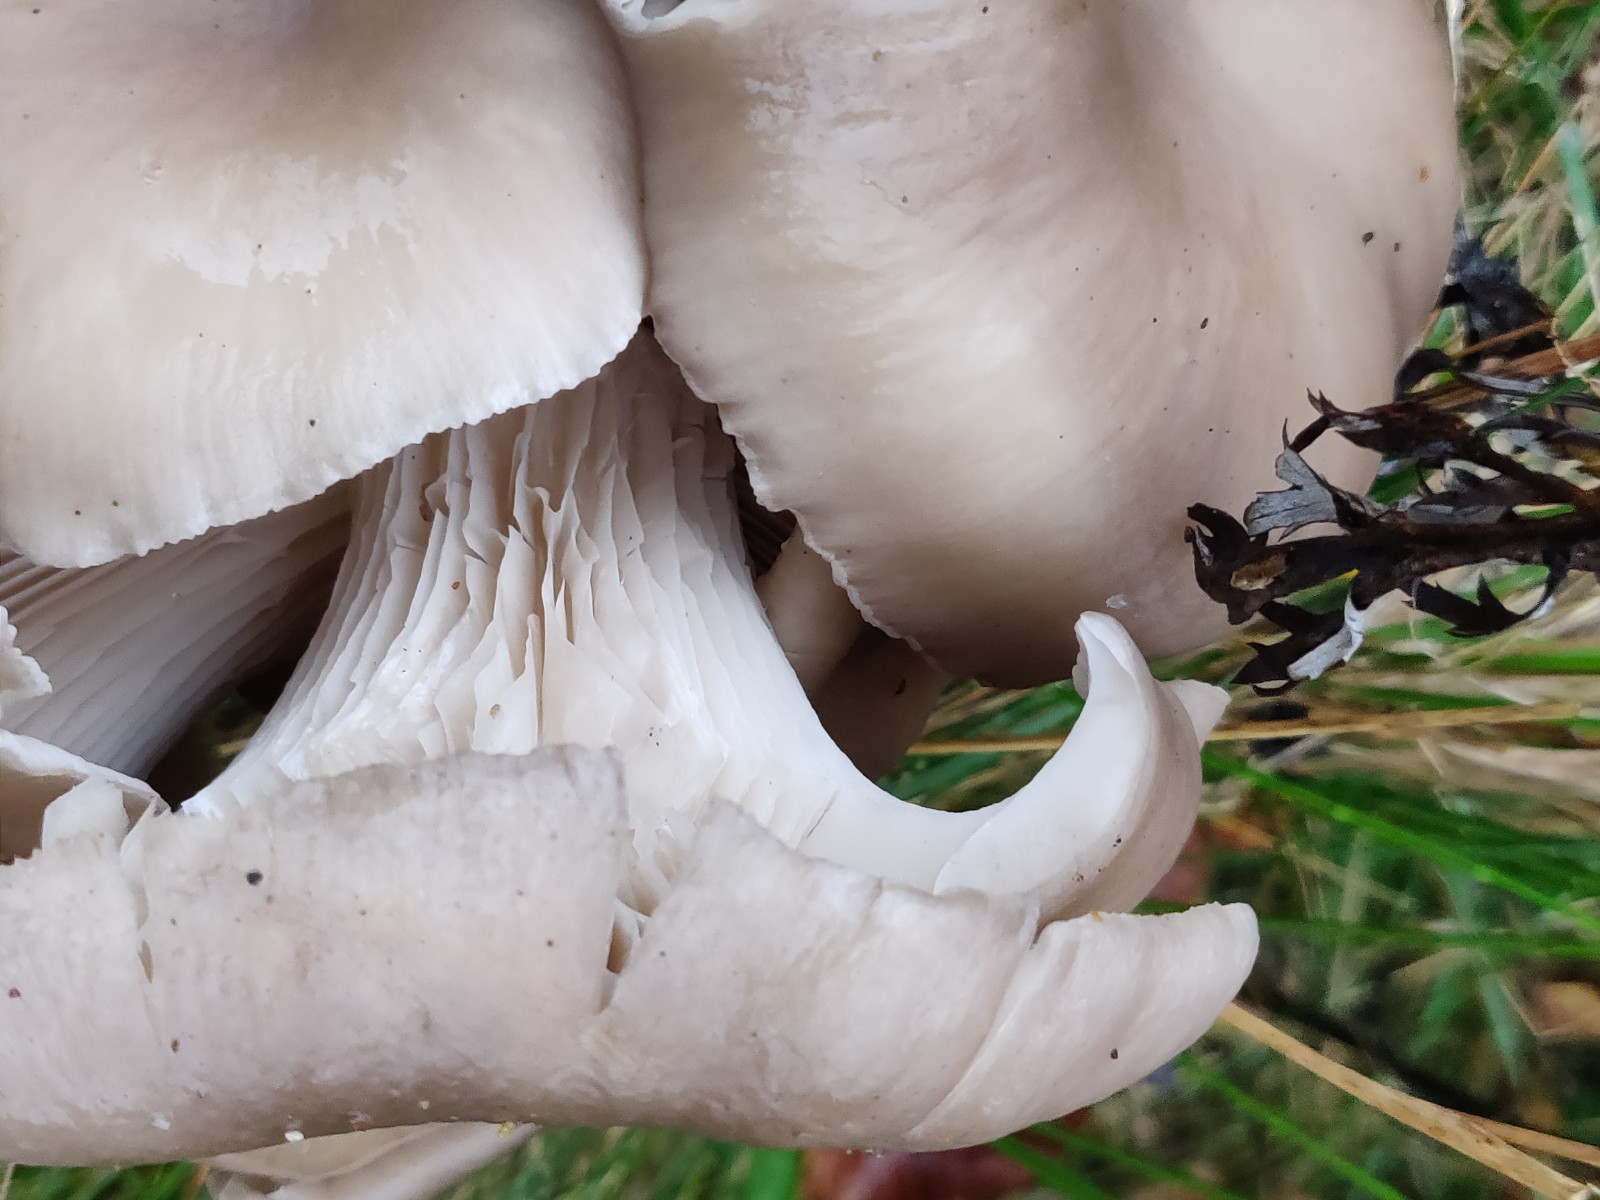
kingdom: Fungi
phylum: Basidiomycota
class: Agaricomycetes
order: Agaricales
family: Pleurotaceae
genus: Pleurotus
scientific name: Pleurotus ostreatus
